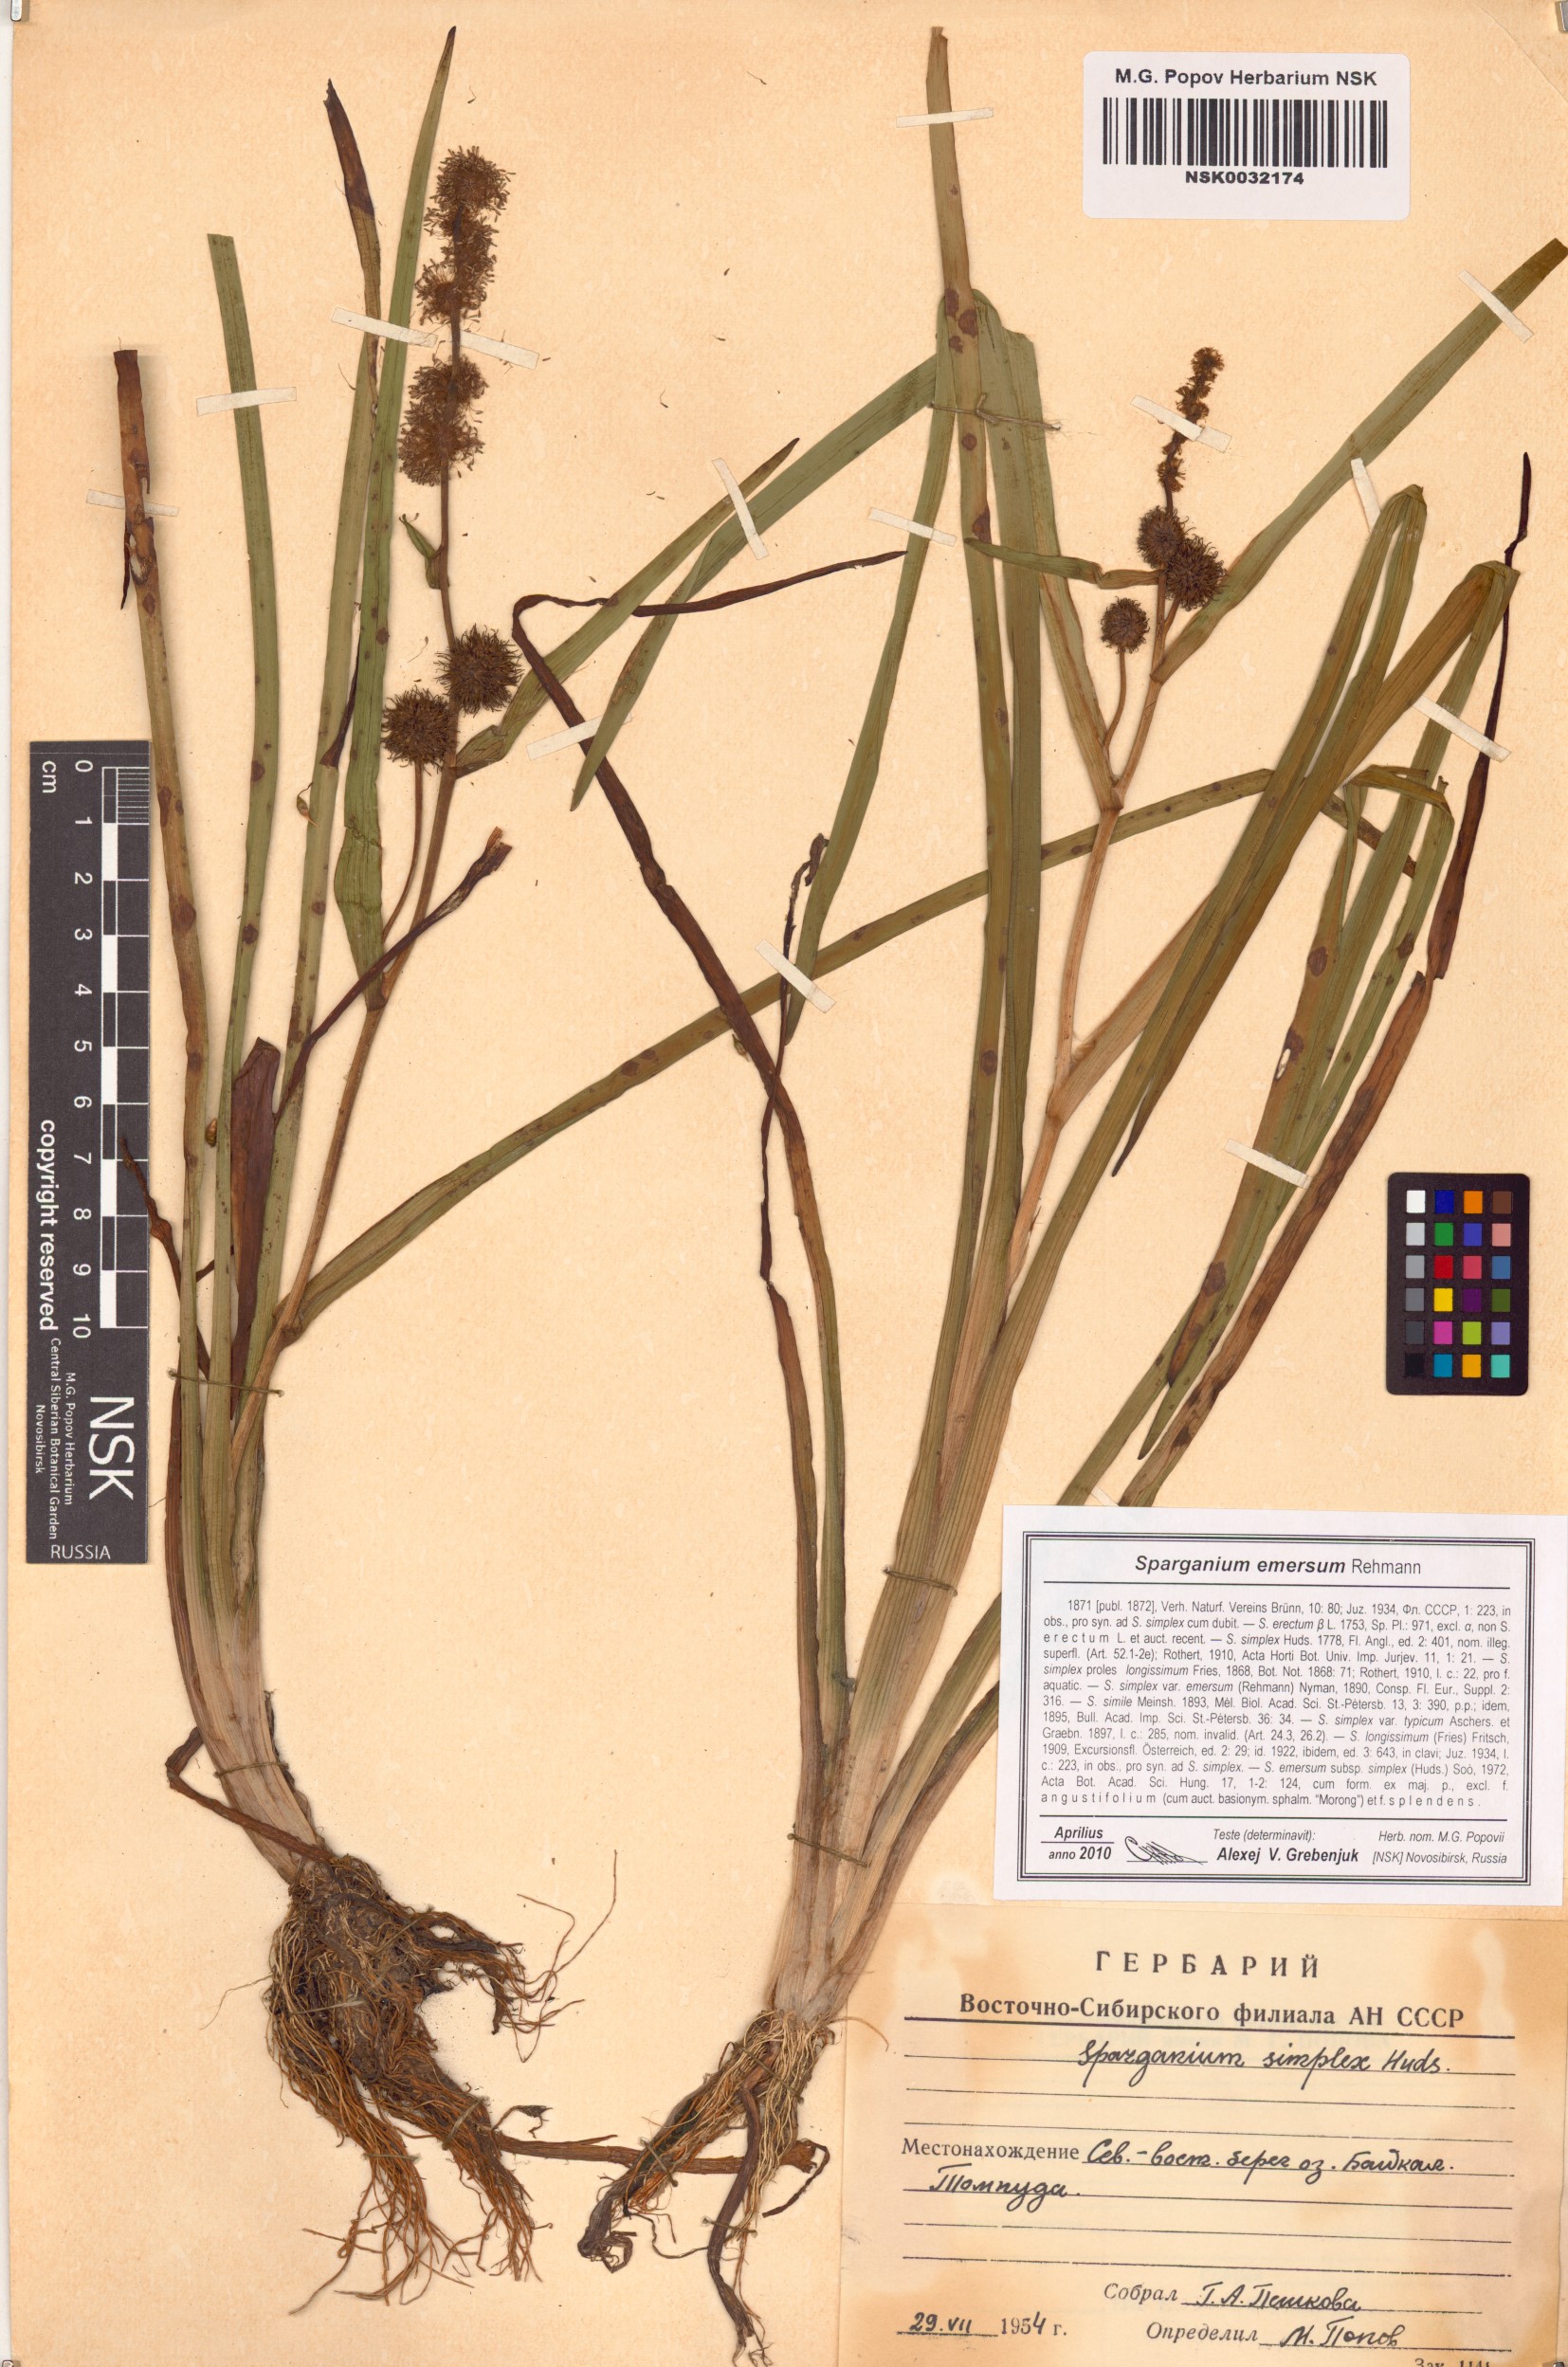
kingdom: Plantae
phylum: Tracheophyta
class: Liliopsida
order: Poales
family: Typhaceae
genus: Sparganium
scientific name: Sparganium emersum
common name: Unbranched bur-reed
